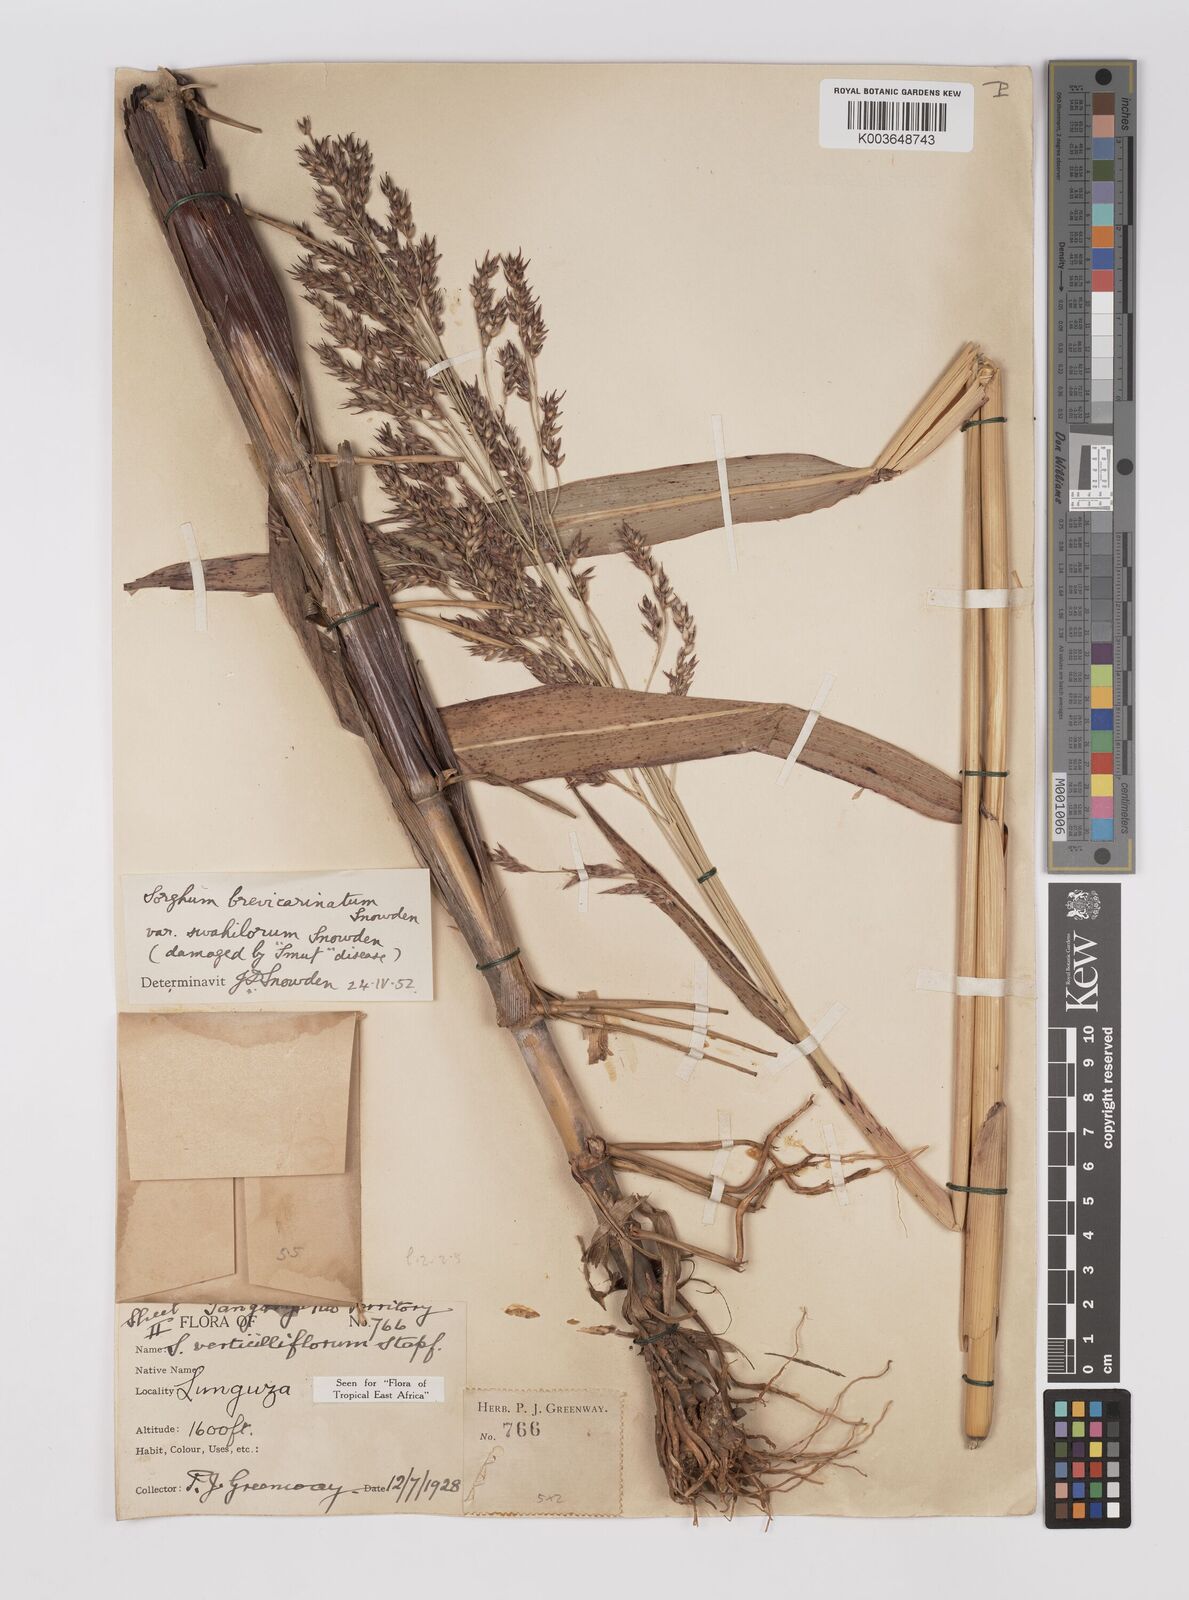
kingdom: Plantae
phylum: Tracheophyta
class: Liliopsida
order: Poales
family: Poaceae
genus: Sorghum
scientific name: Sorghum arundinaceum
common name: Sorghum
